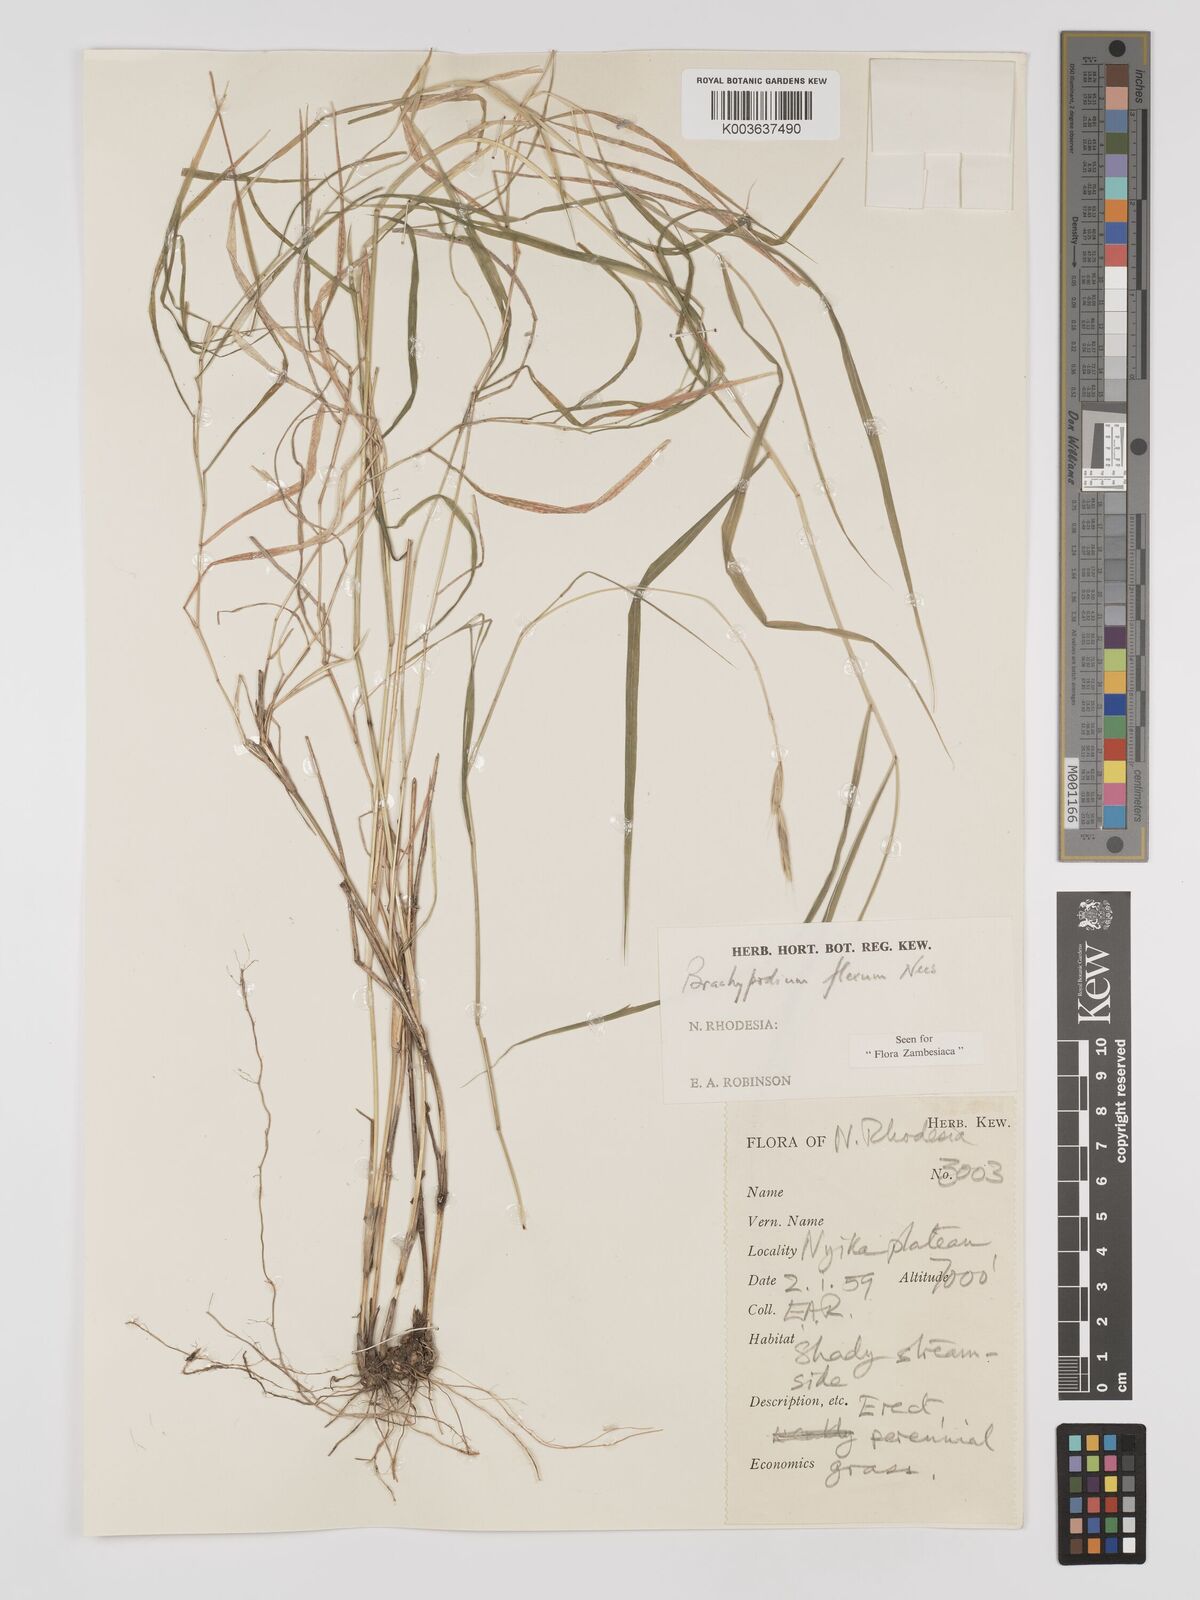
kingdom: Plantae
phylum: Tracheophyta
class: Liliopsida
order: Poales
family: Poaceae
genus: Brachypodium
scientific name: Brachypodium flexum
